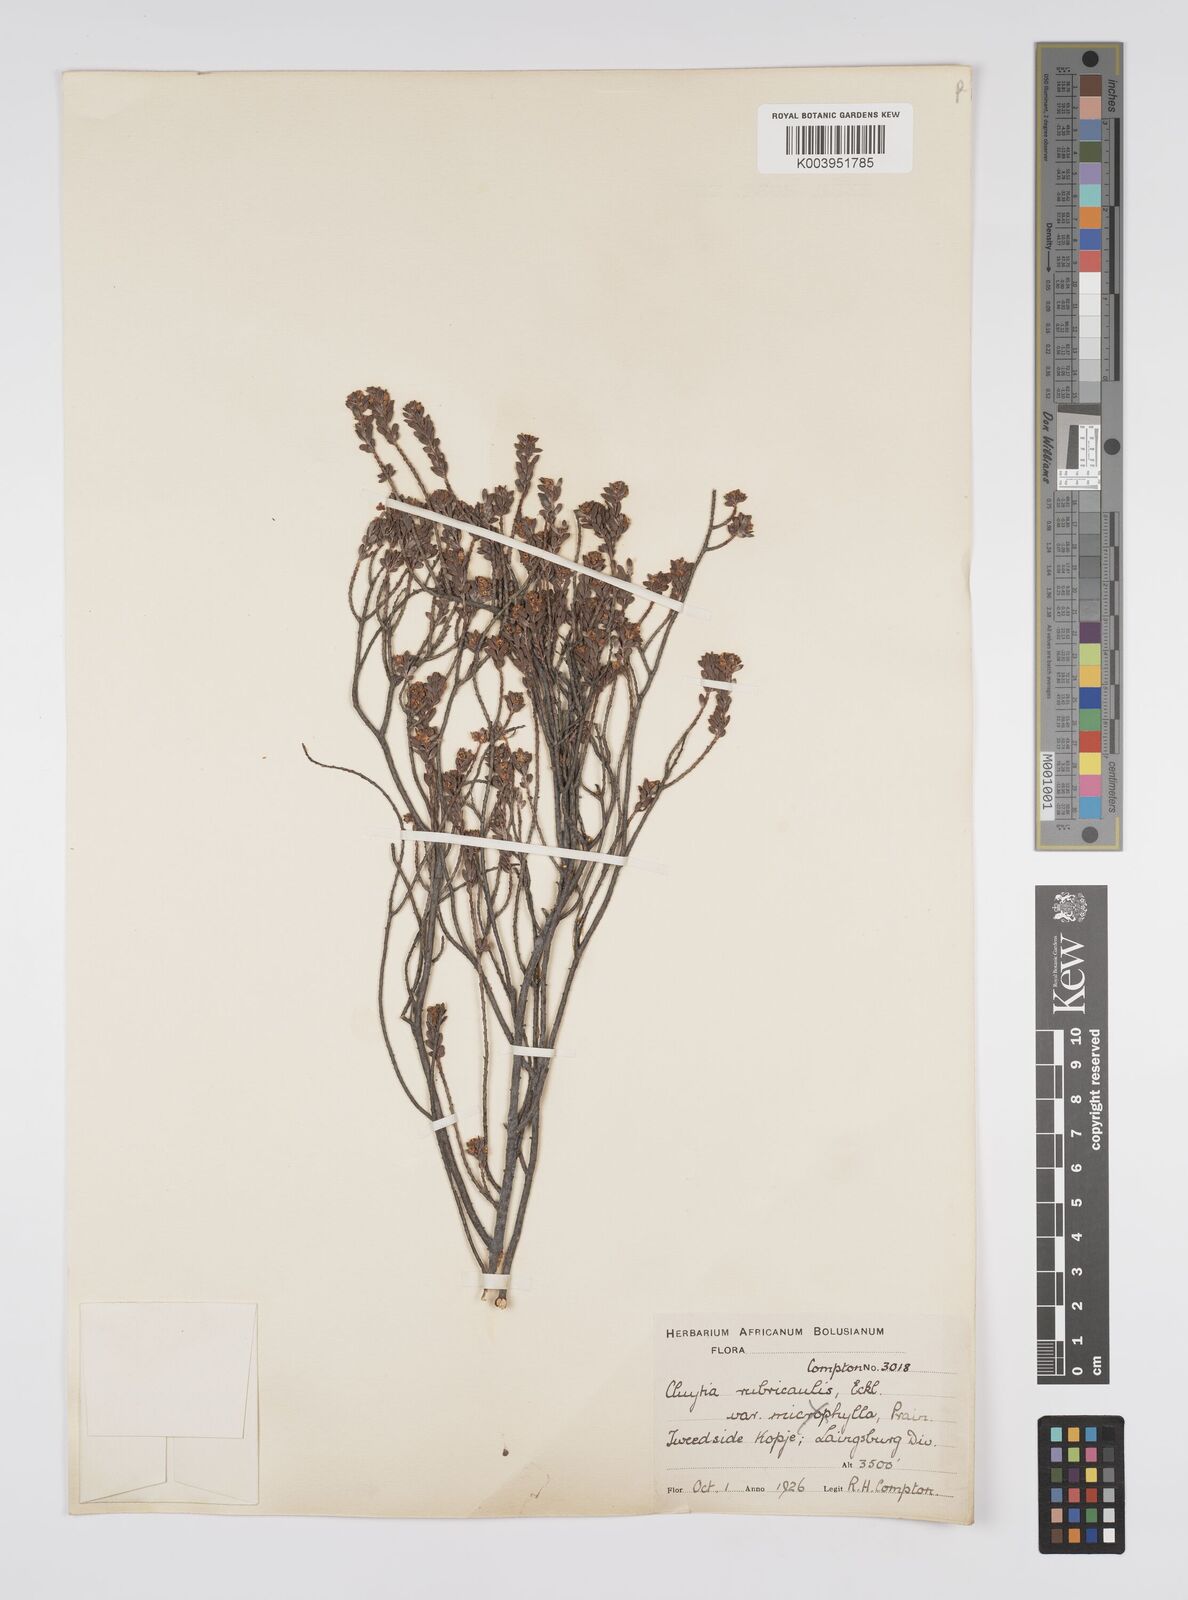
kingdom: Plantae
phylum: Tracheophyta
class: Magnoliopsida
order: Malpighiales
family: Peraceae
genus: Clutia
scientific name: Clutia rubricaulis
